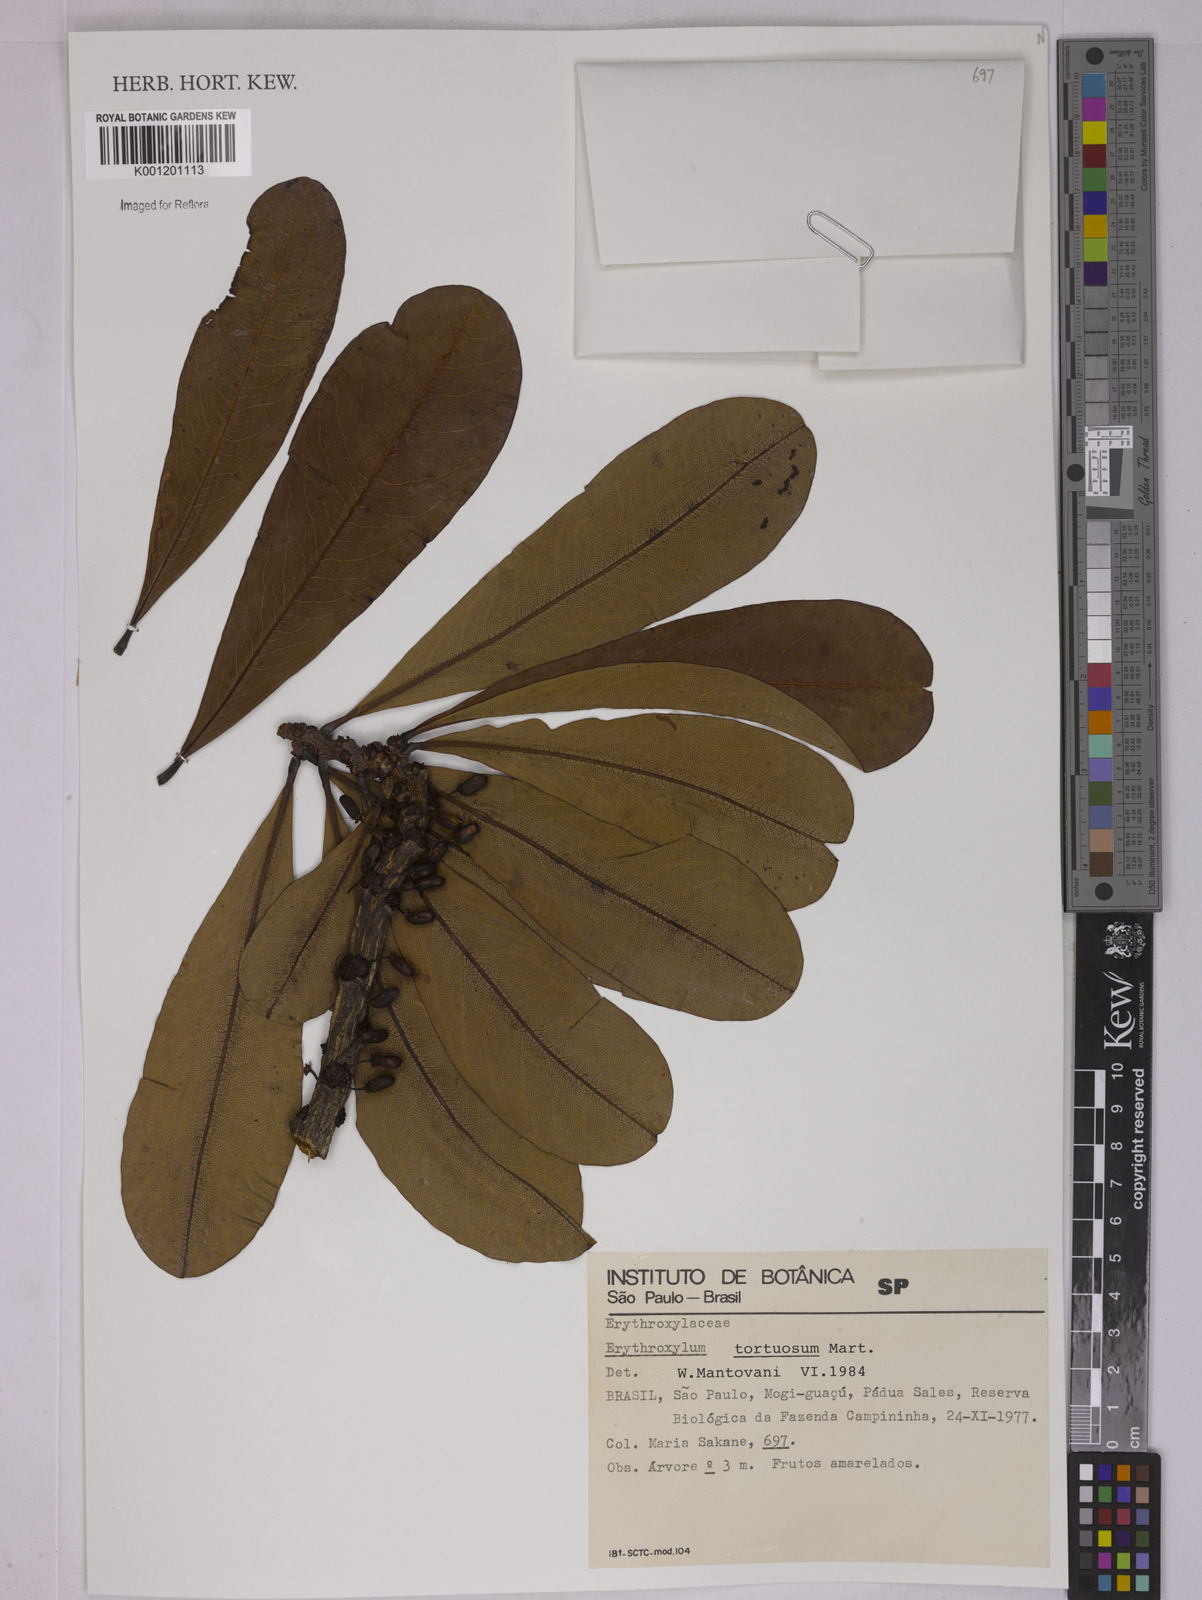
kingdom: Plantae
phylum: Tracheophyta
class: Magnoliopsida
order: Malpighiales
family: Erythroxylaceae
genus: Erythroxylum
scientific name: Erythroxylum tortuosum
